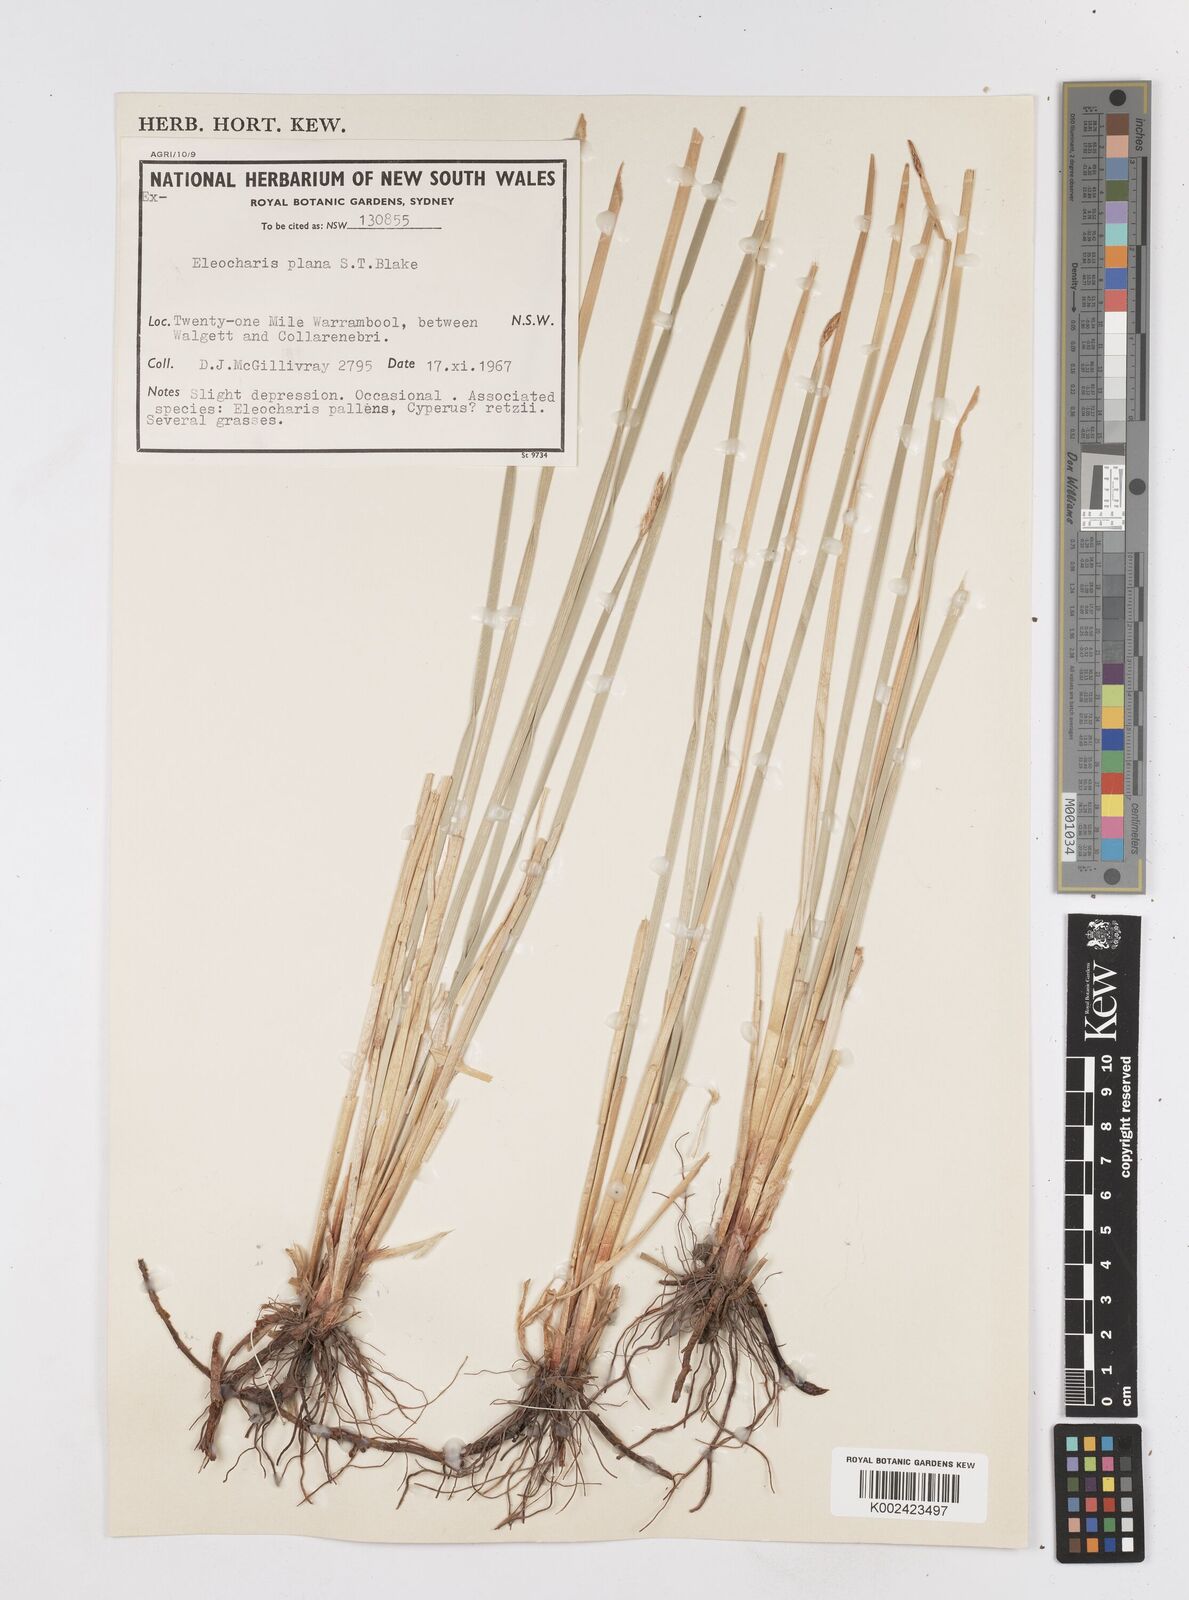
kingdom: Plantae
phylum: Tracheophyta
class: Liliopsida
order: Poales
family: Cyperaceae
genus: Eleocharis
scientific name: Eleocharis plana
